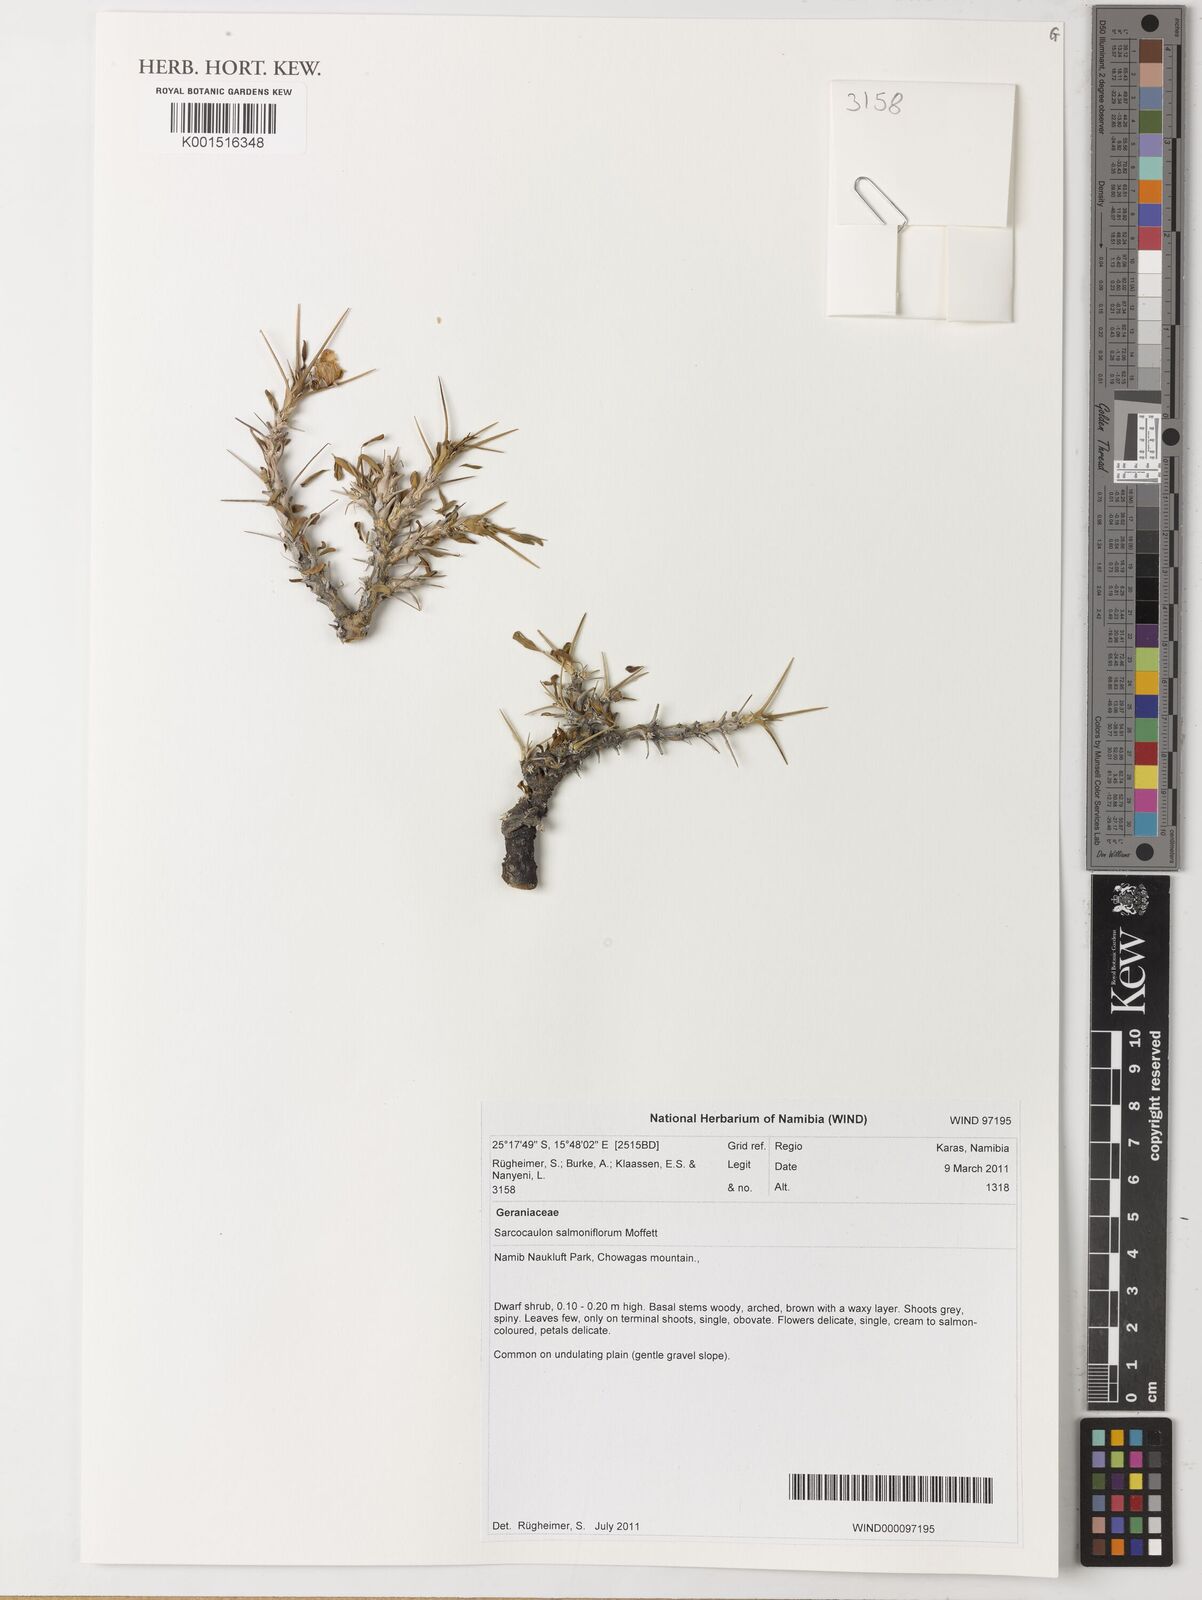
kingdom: Plantae
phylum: Tracheophyta
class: Magnoliopsida
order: Geraniales
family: Geraniaceae
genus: Monsonia
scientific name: Monsonia salmoniflora
